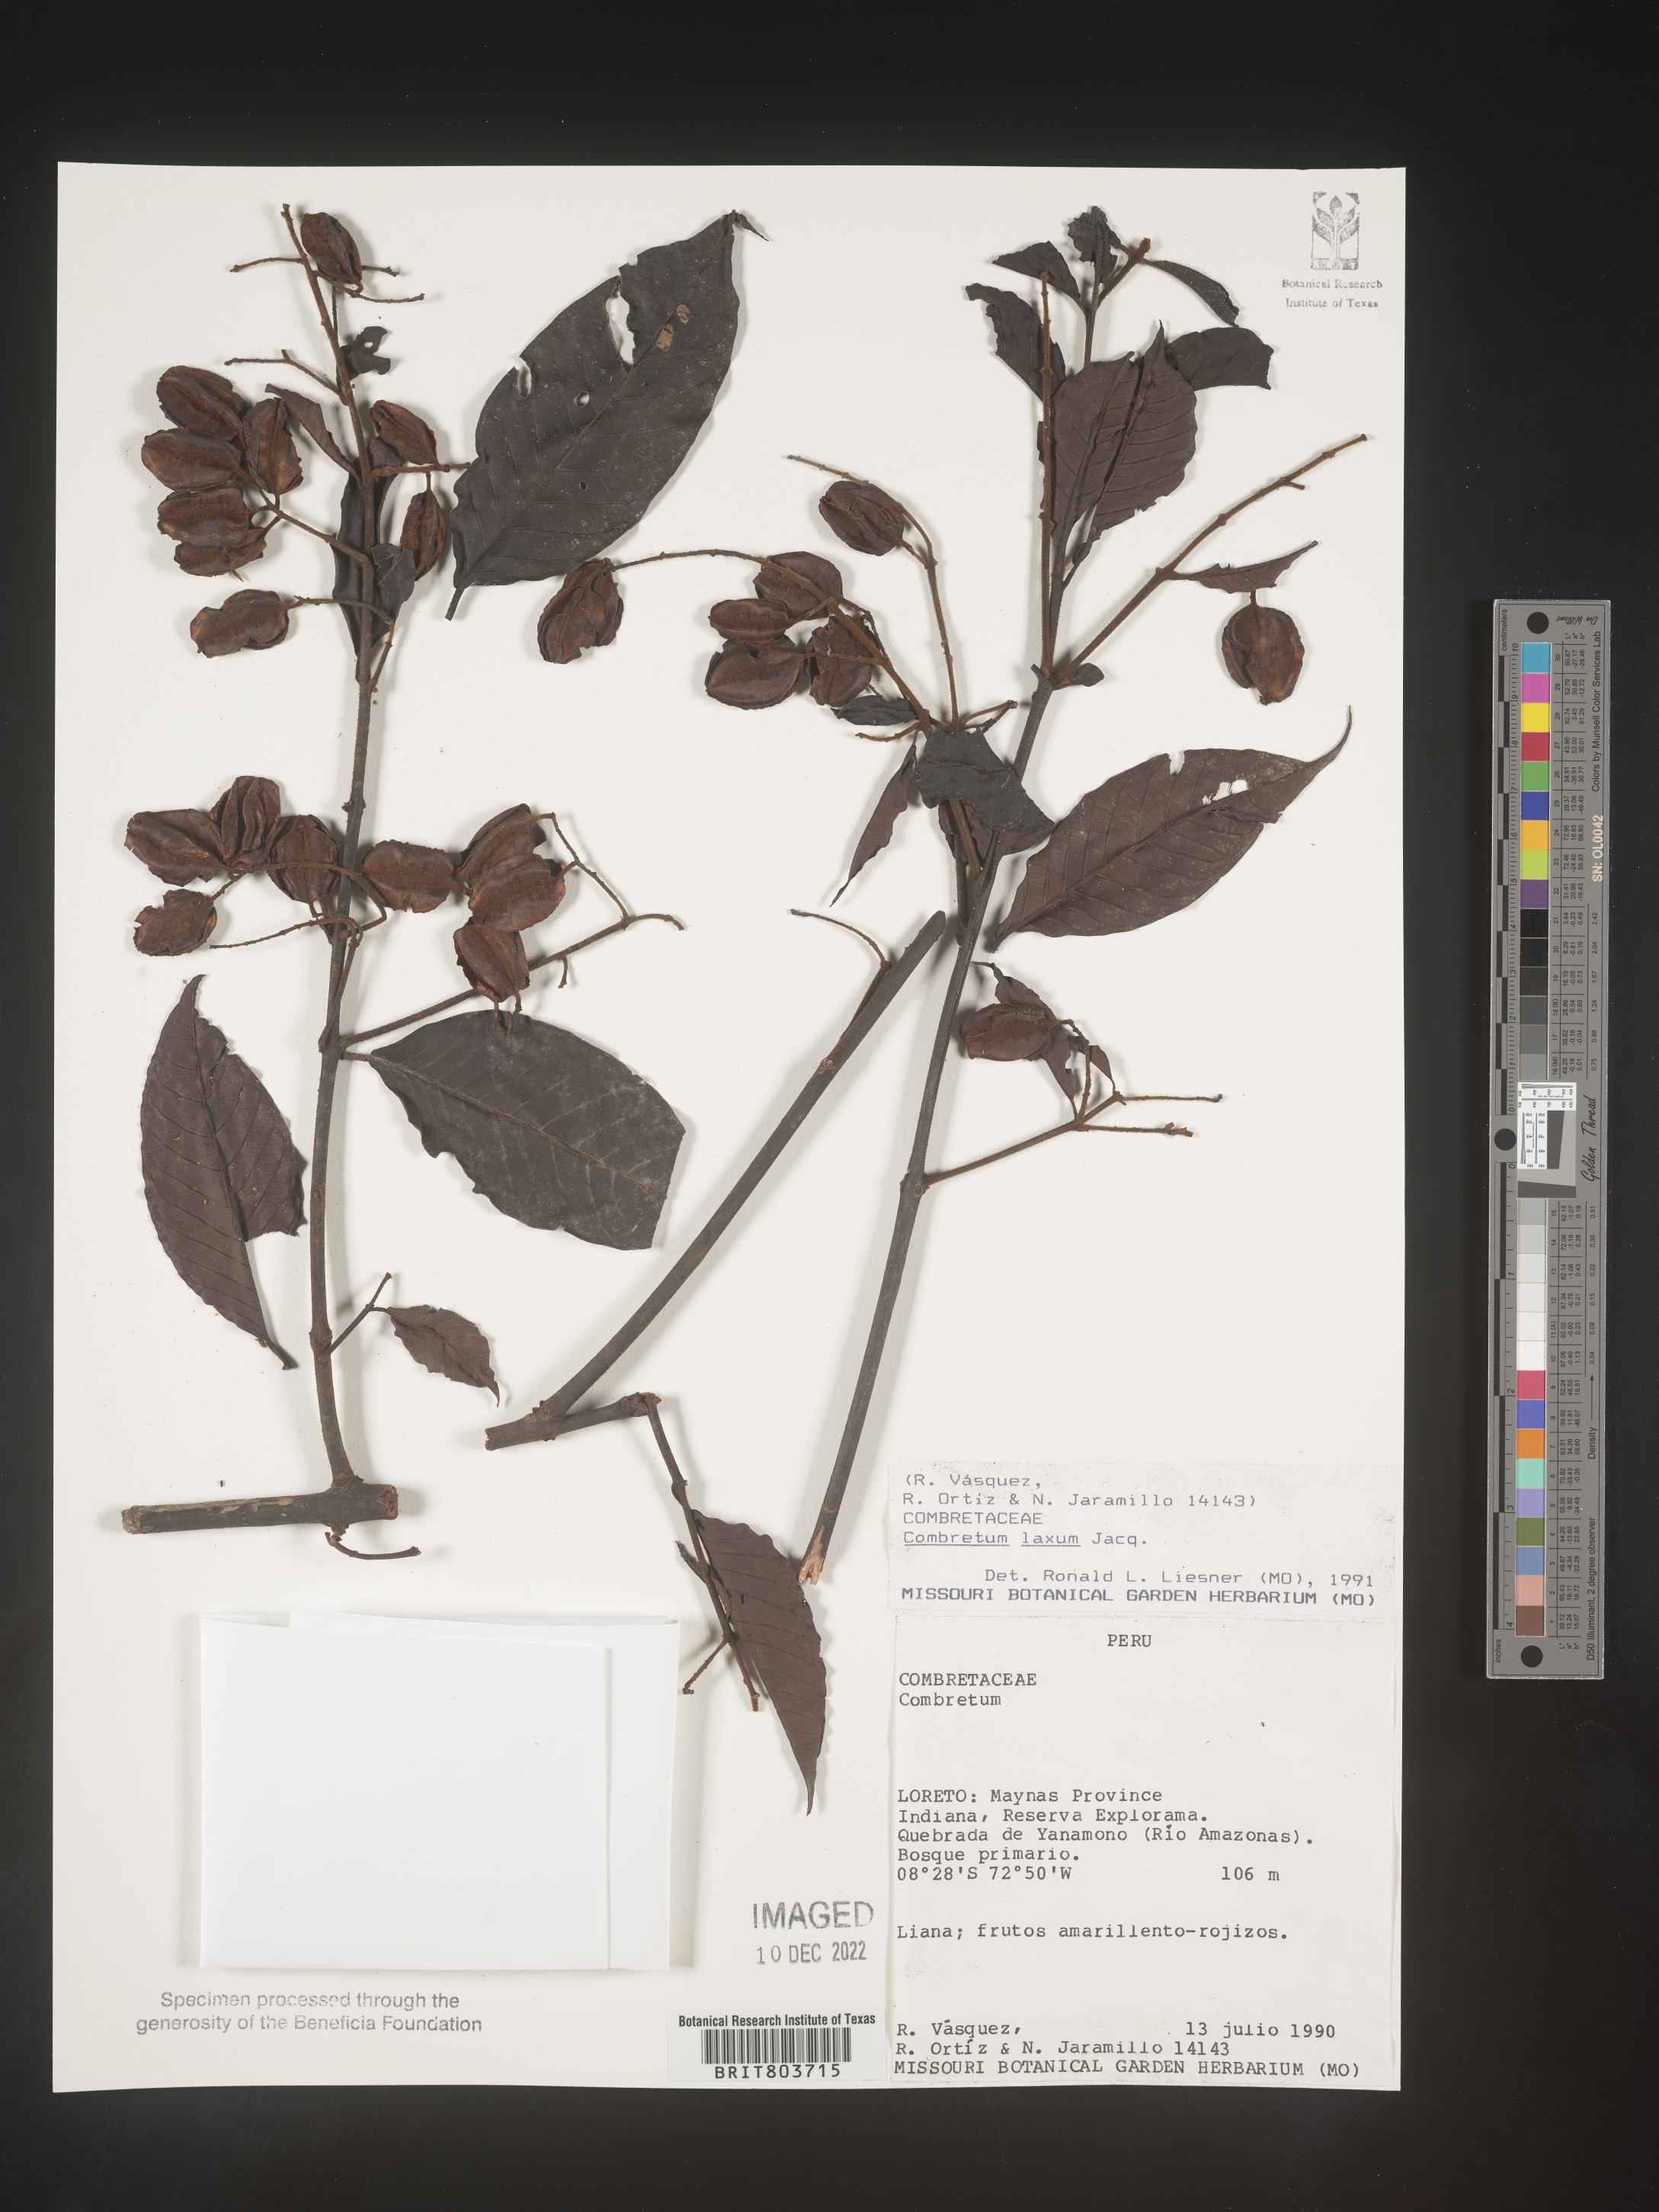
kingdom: Plantae
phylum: Tracheophyta
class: Magnoliopsida
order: Myrtales
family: Combretaceae
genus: Combretum
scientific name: Combretum
